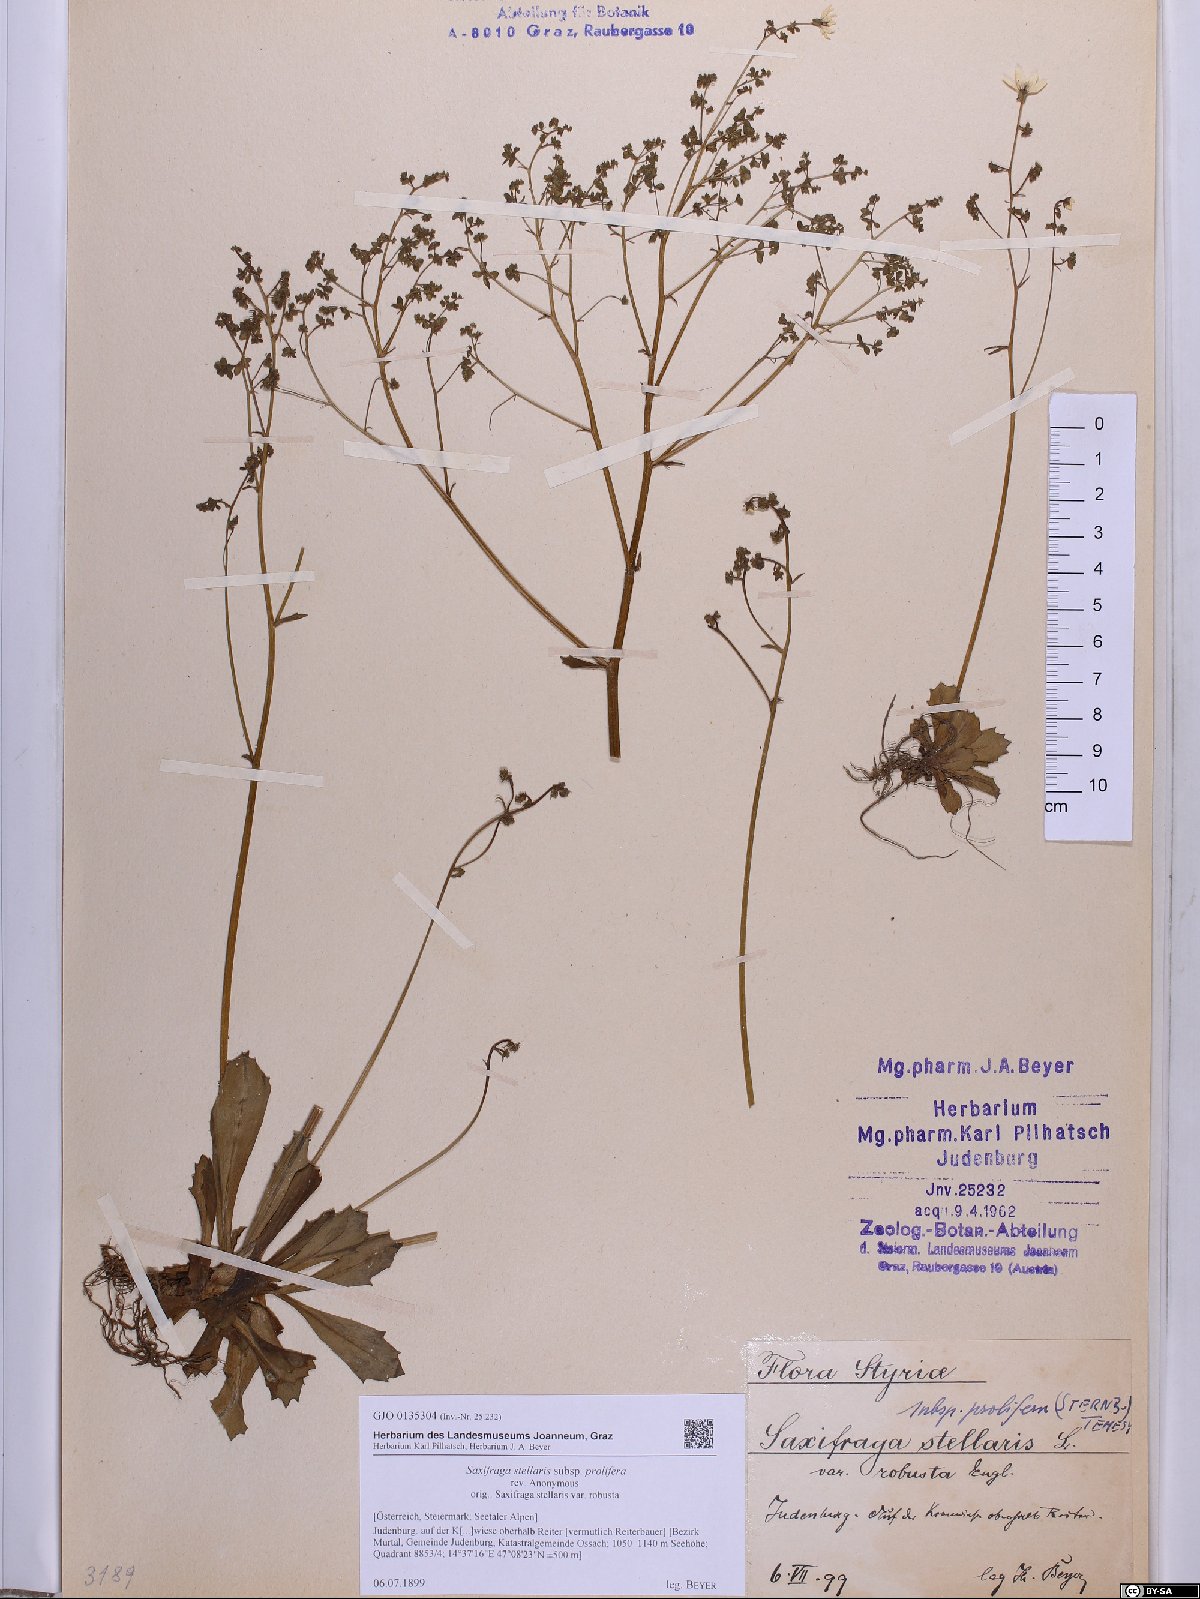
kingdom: Plantae
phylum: Tracheophyta
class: Magnoliopsida
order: Saxifragales
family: Saxifragaceae
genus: Micranthes
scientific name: Micranthes stellaris
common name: Starry saxifrage
